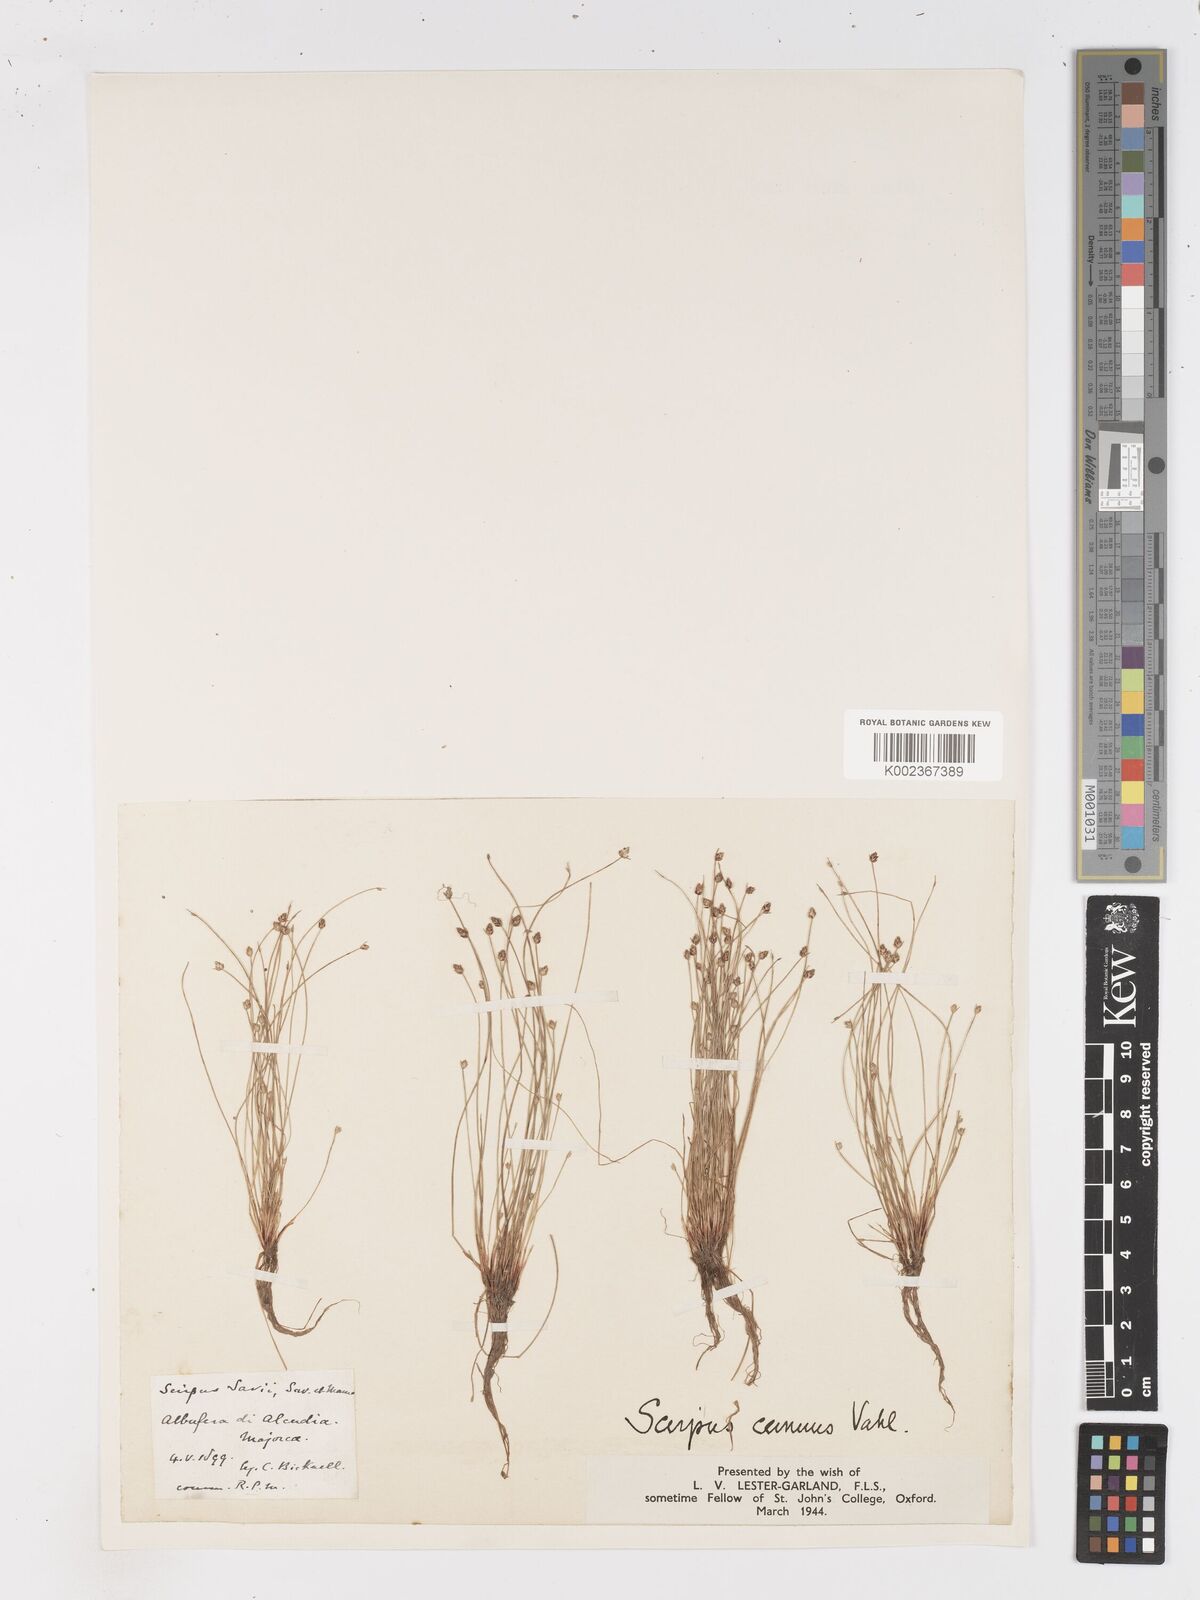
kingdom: Plantae
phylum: Tracheophyta
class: Liliopsida
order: Poales
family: Cyperaceae
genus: Isolepis
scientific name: Isolepis cernua
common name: Slender club-rush
